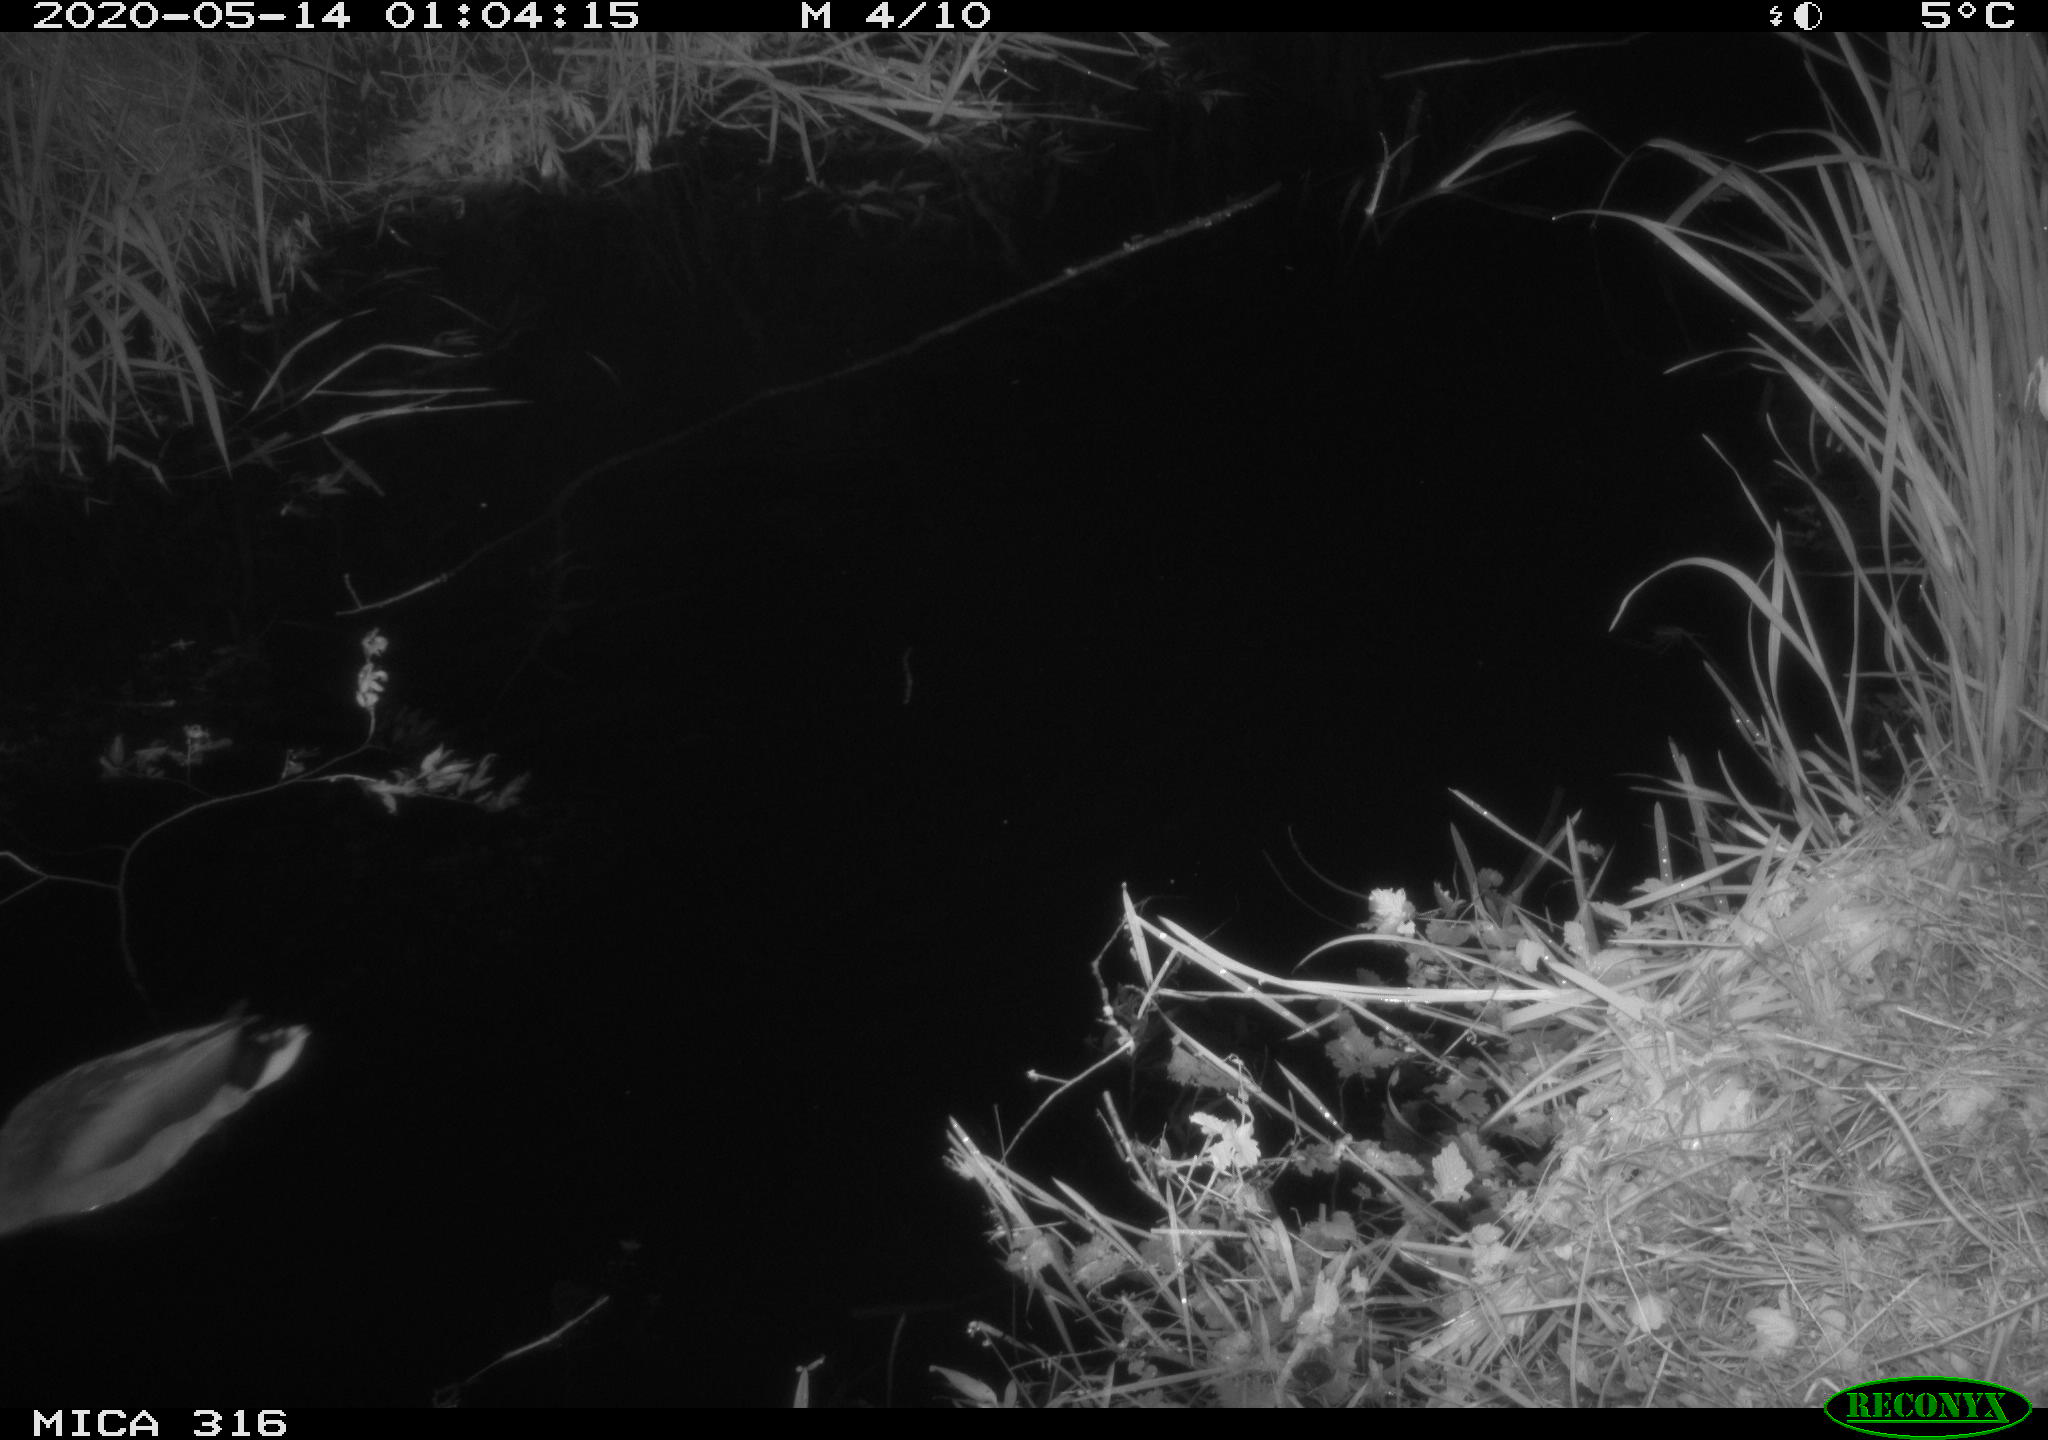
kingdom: Animalia
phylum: Chordata
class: Aves
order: Anseriformes
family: Anatidae
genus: Anas
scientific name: Anas platyrhynchos
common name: Mallard
